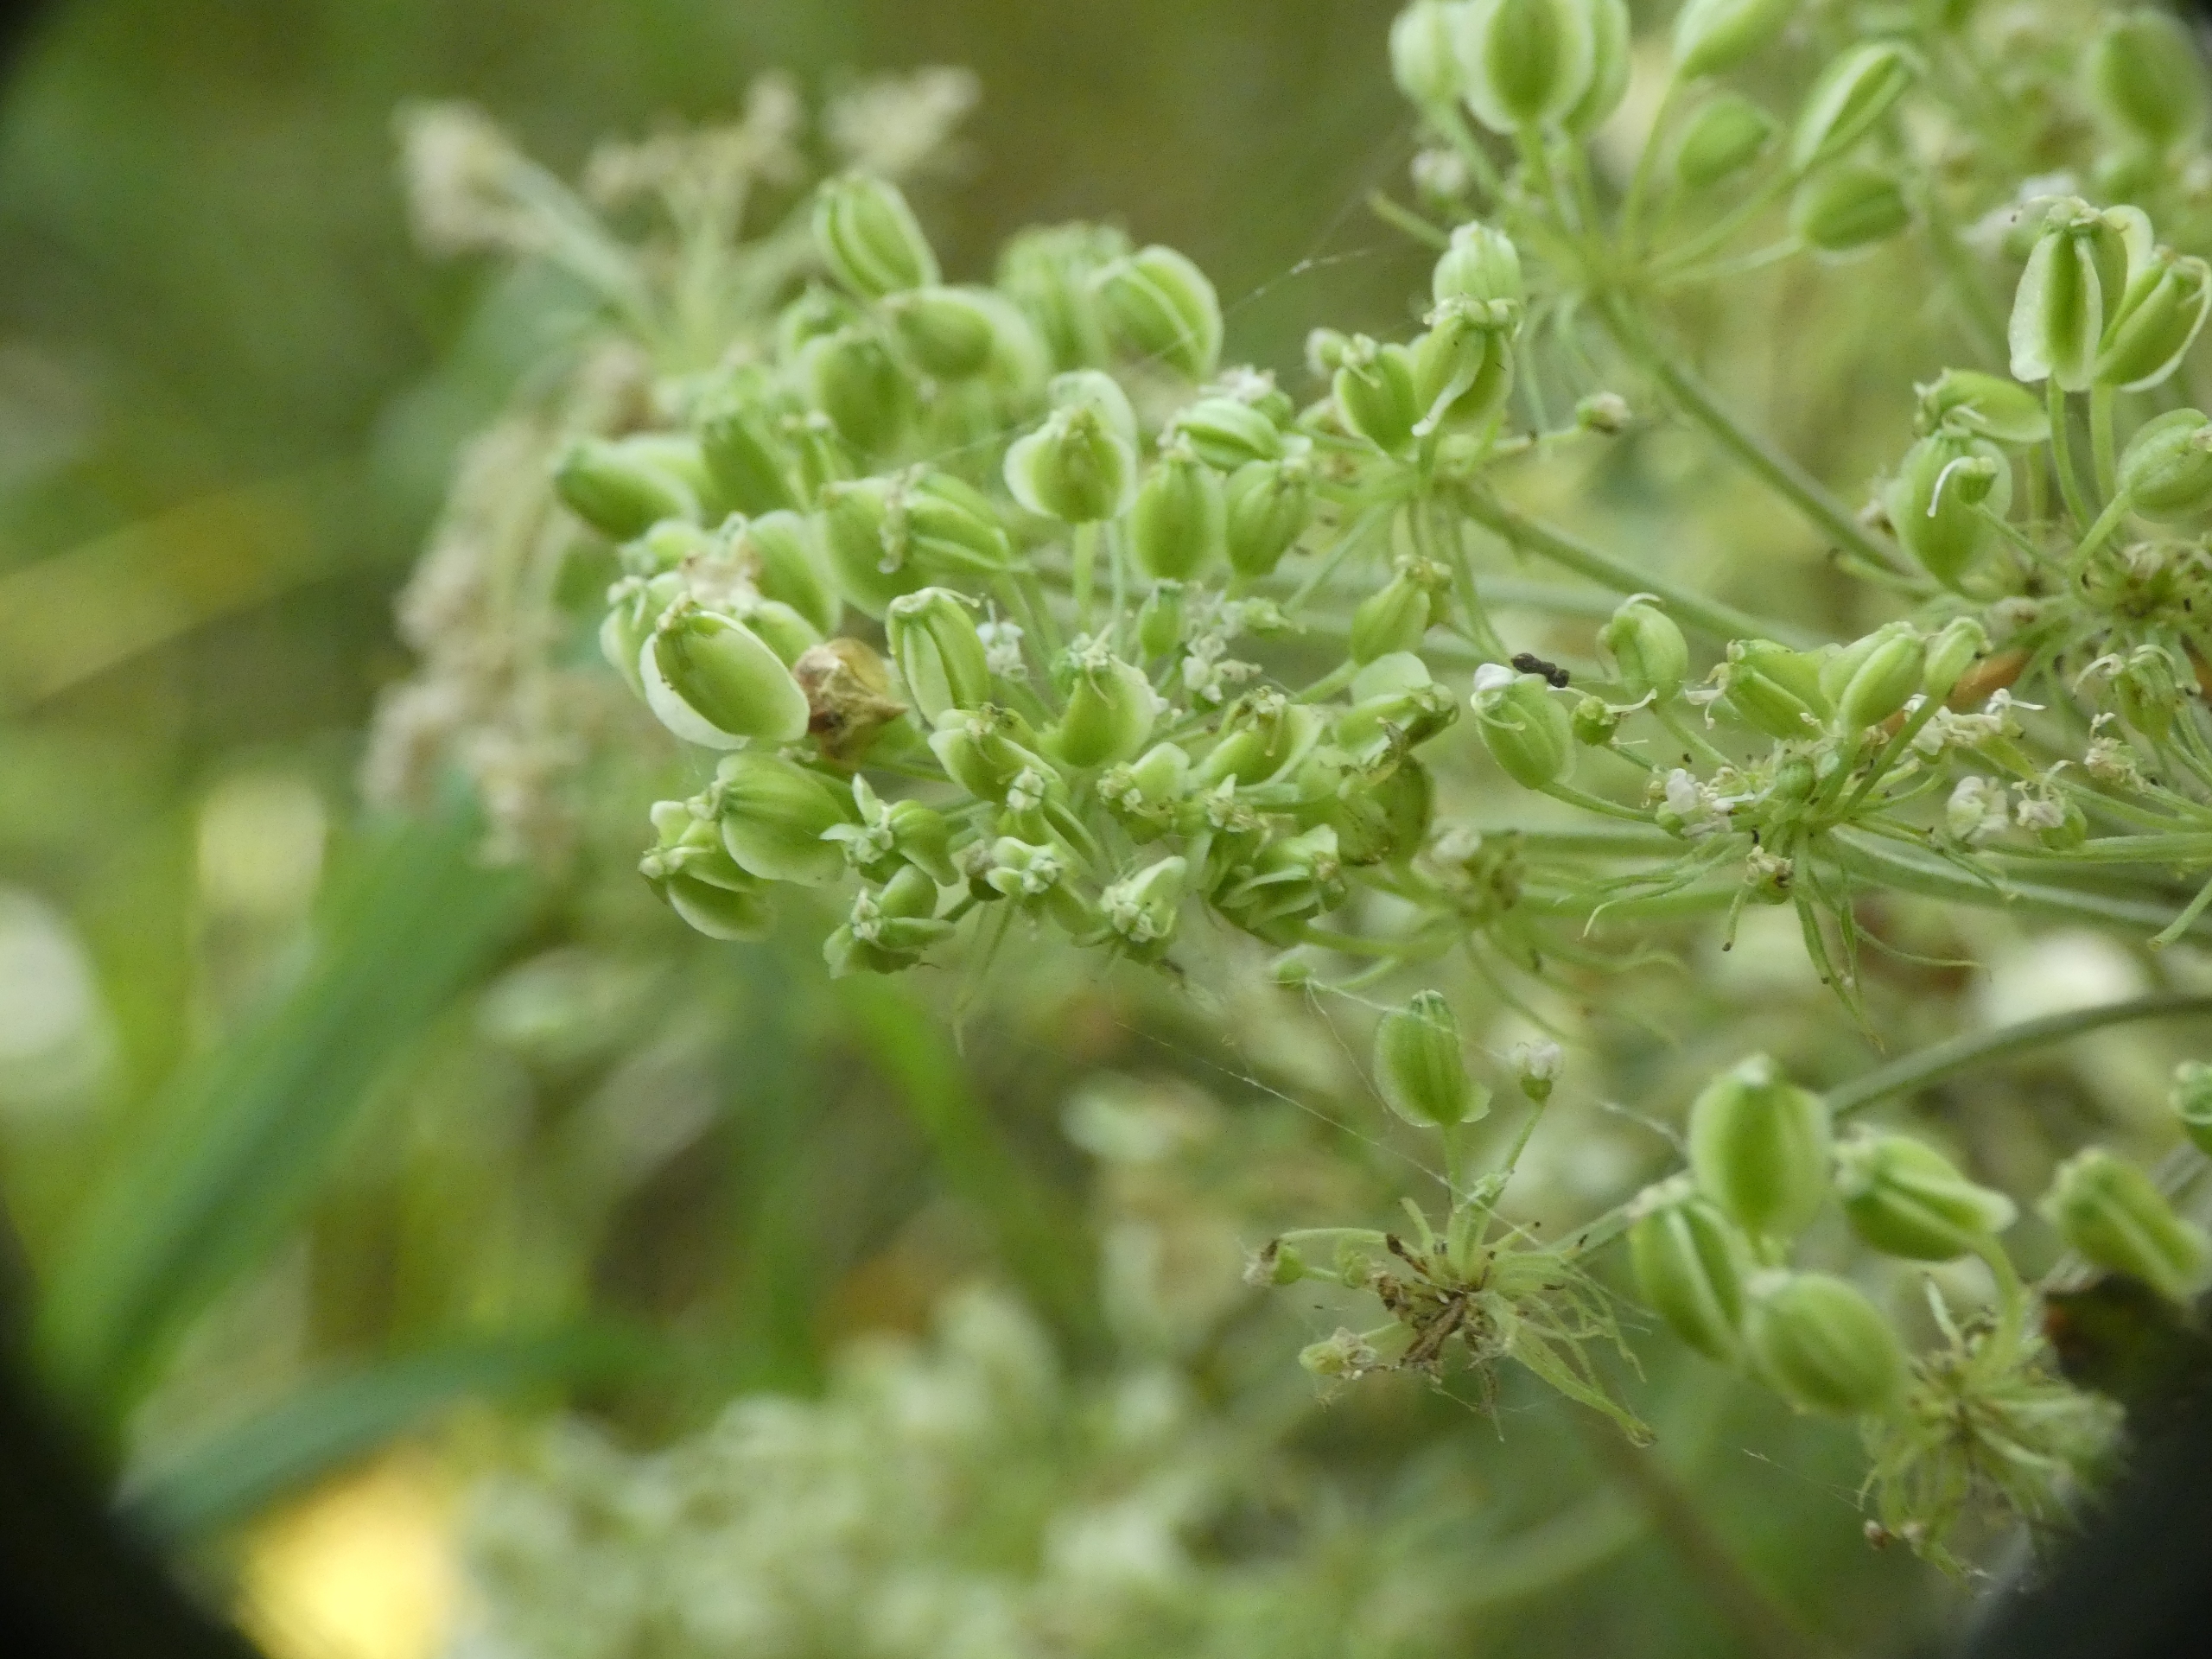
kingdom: Plantae
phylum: Tracheophyta
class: Magnoliopsida
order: Apiales
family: Apiaceae
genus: Angelica
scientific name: Angelica sylvestris
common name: Angelik
